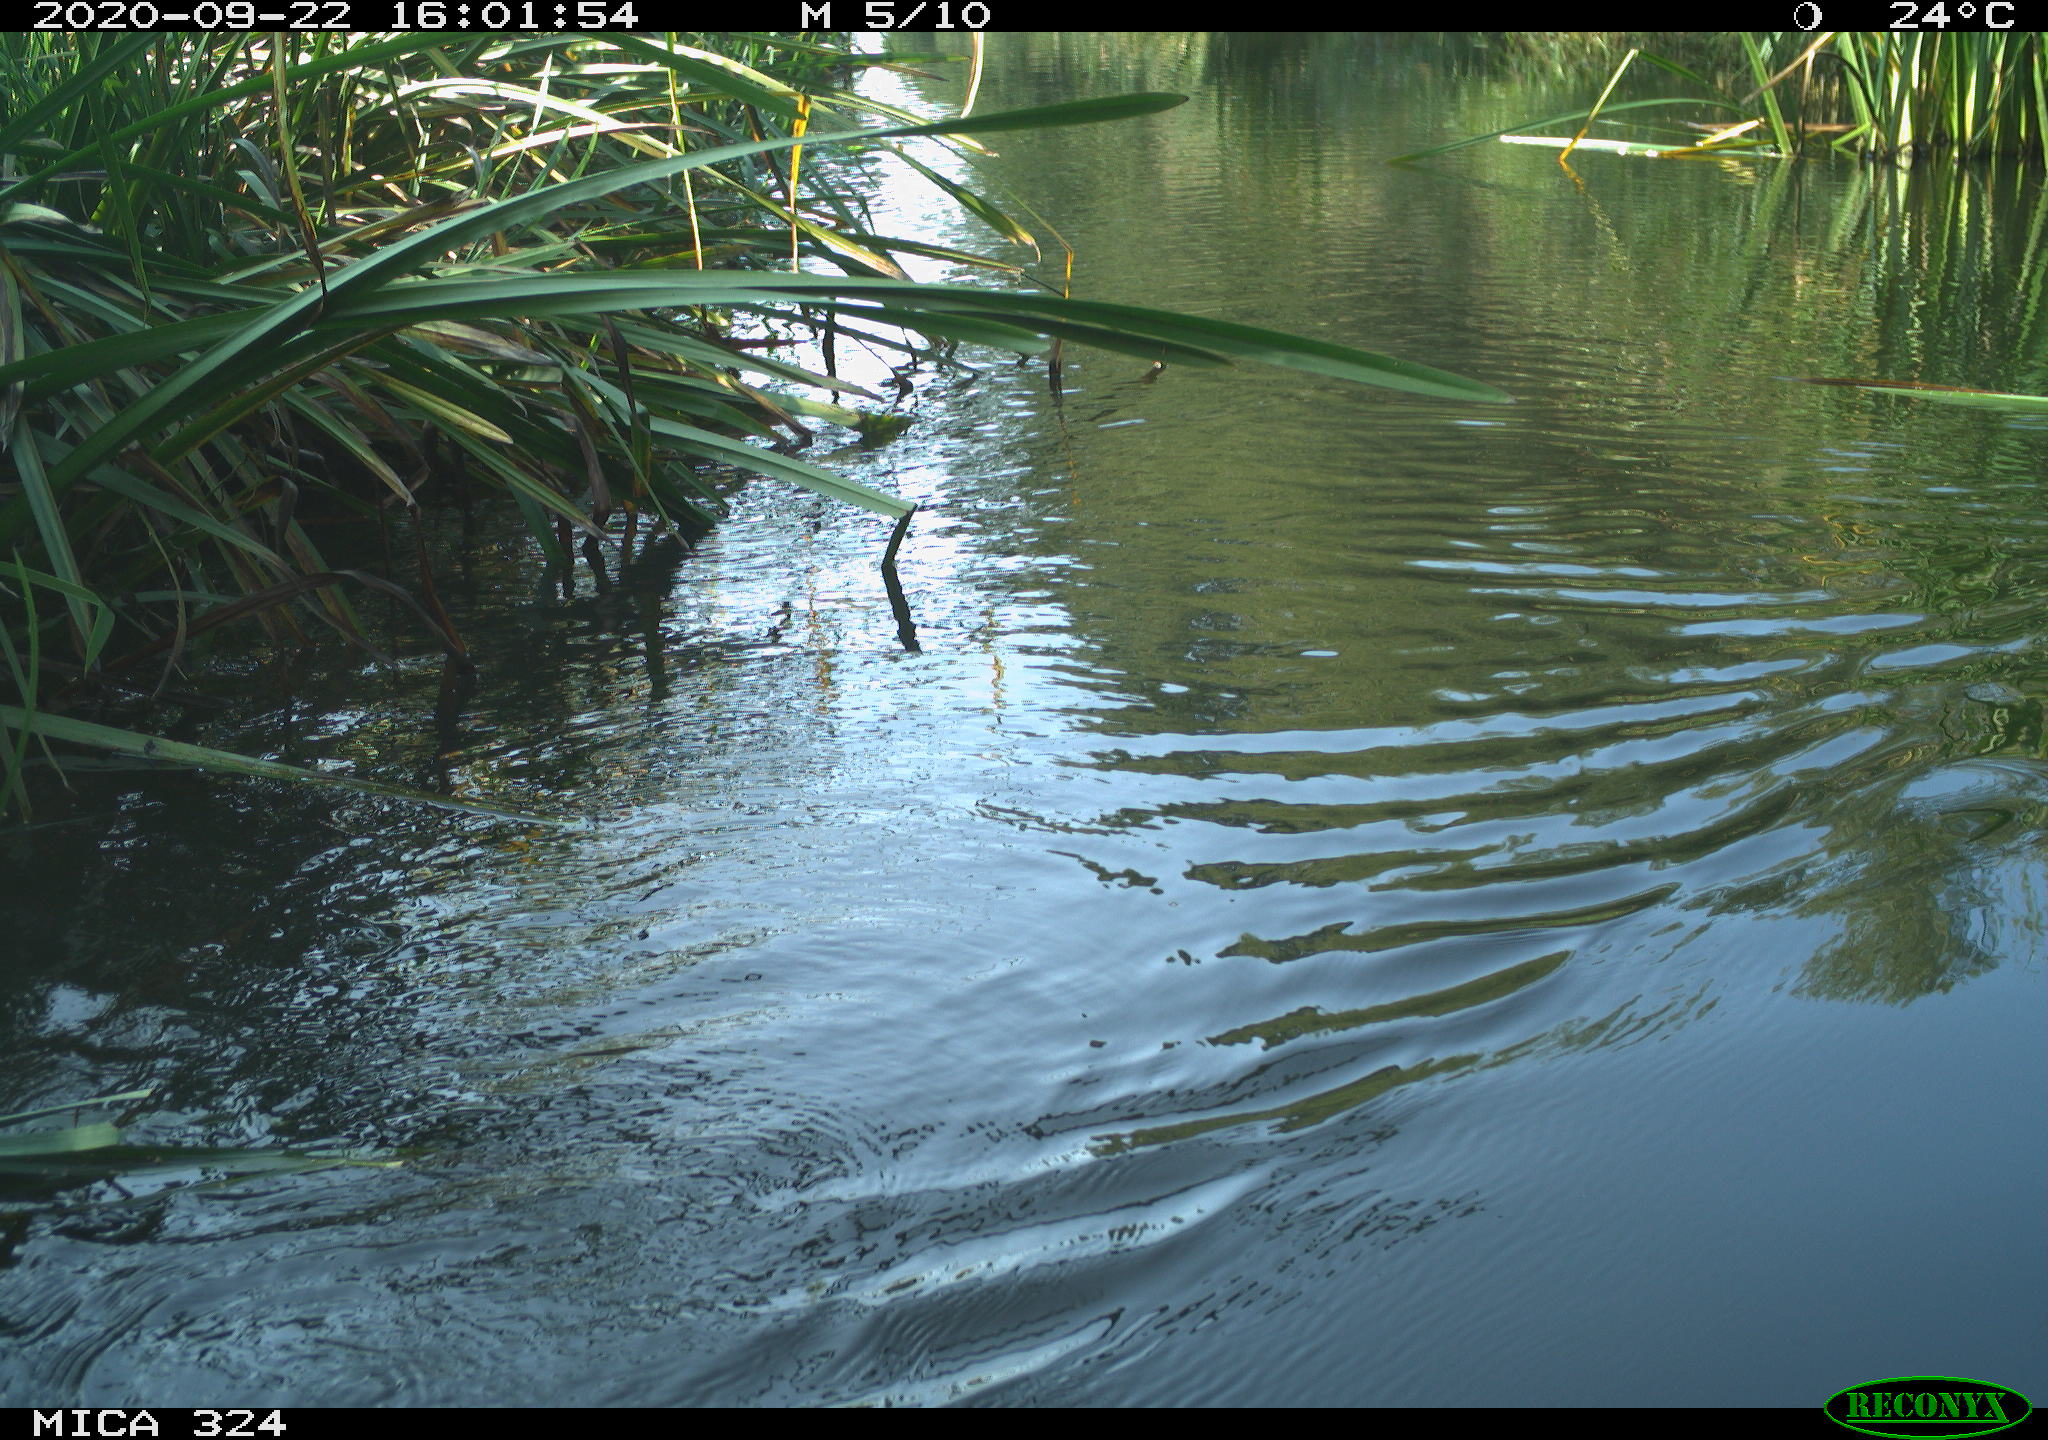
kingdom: Animalia
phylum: Chordata
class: Mammalia
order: Rodentia
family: Cricetidae
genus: Ondatra
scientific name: Ondatra zibethicus
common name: Muskrat
